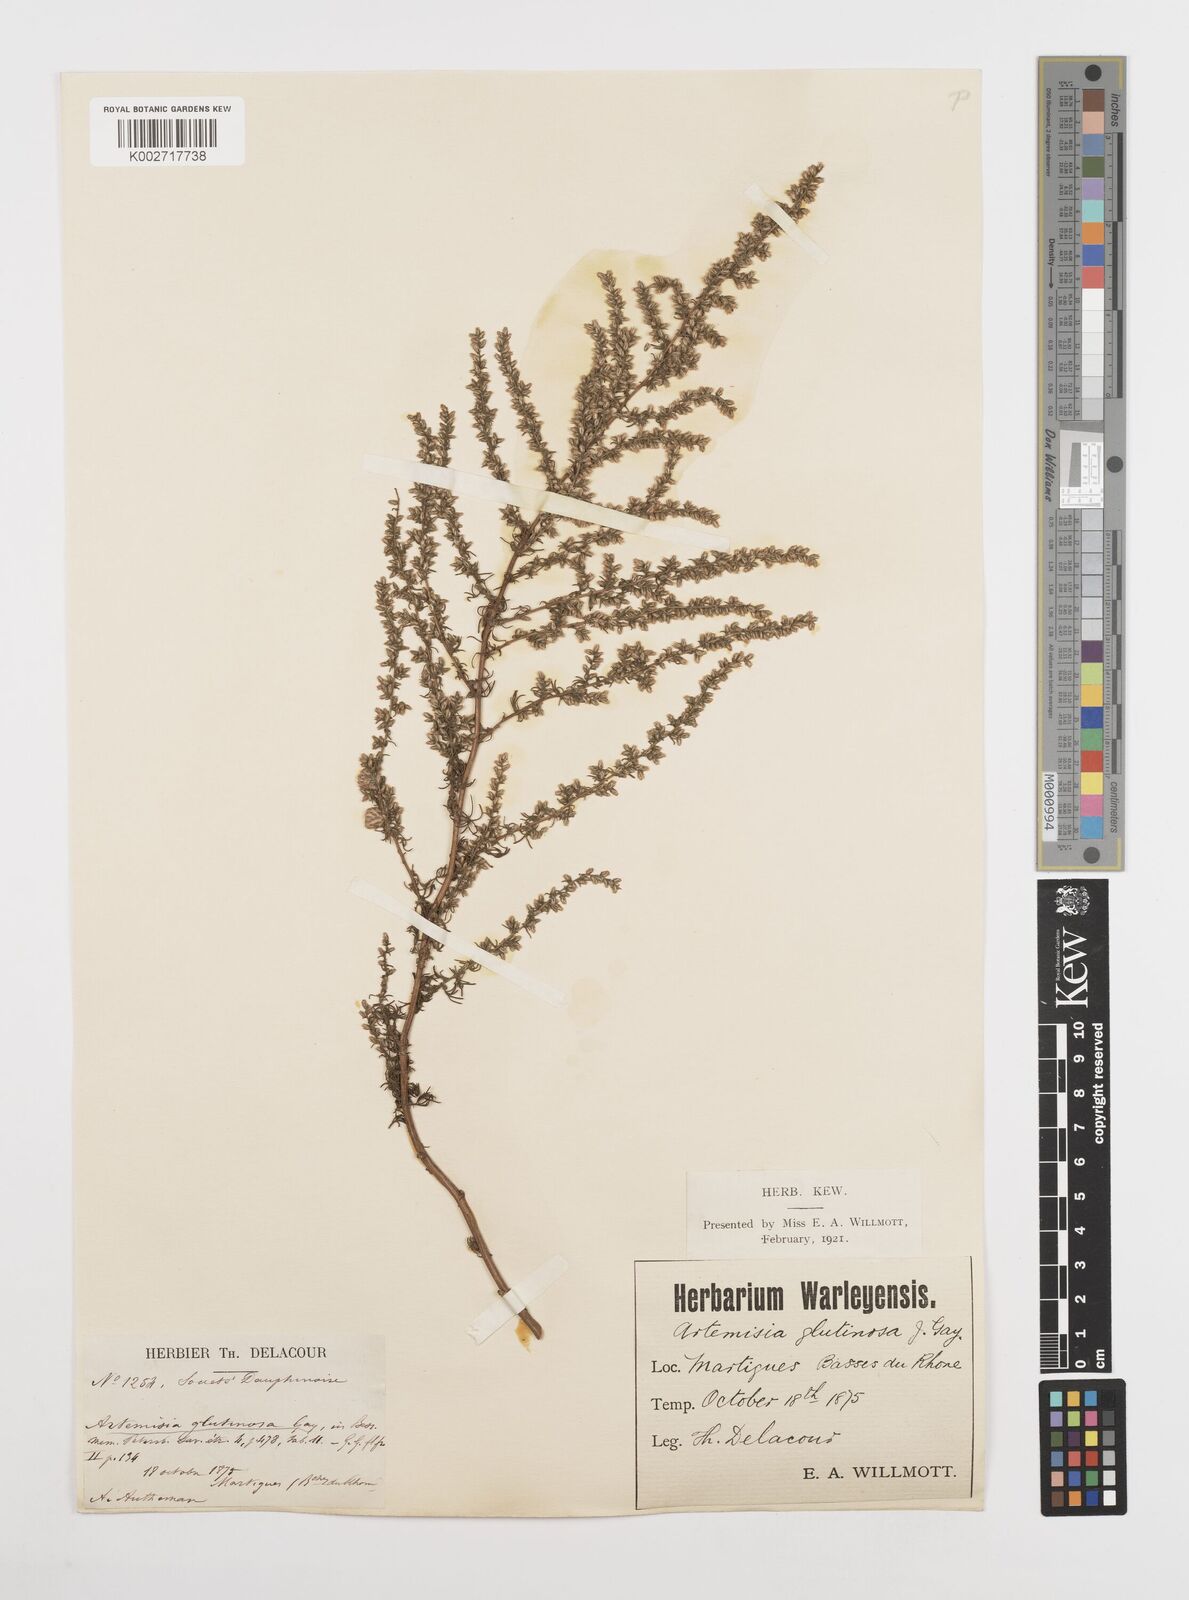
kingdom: Plantae
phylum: Tracheophyta
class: Magnoliopsida
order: Asterales
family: Asteraceae
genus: Artemisia
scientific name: Artemisia campestris
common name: Field wormwood
